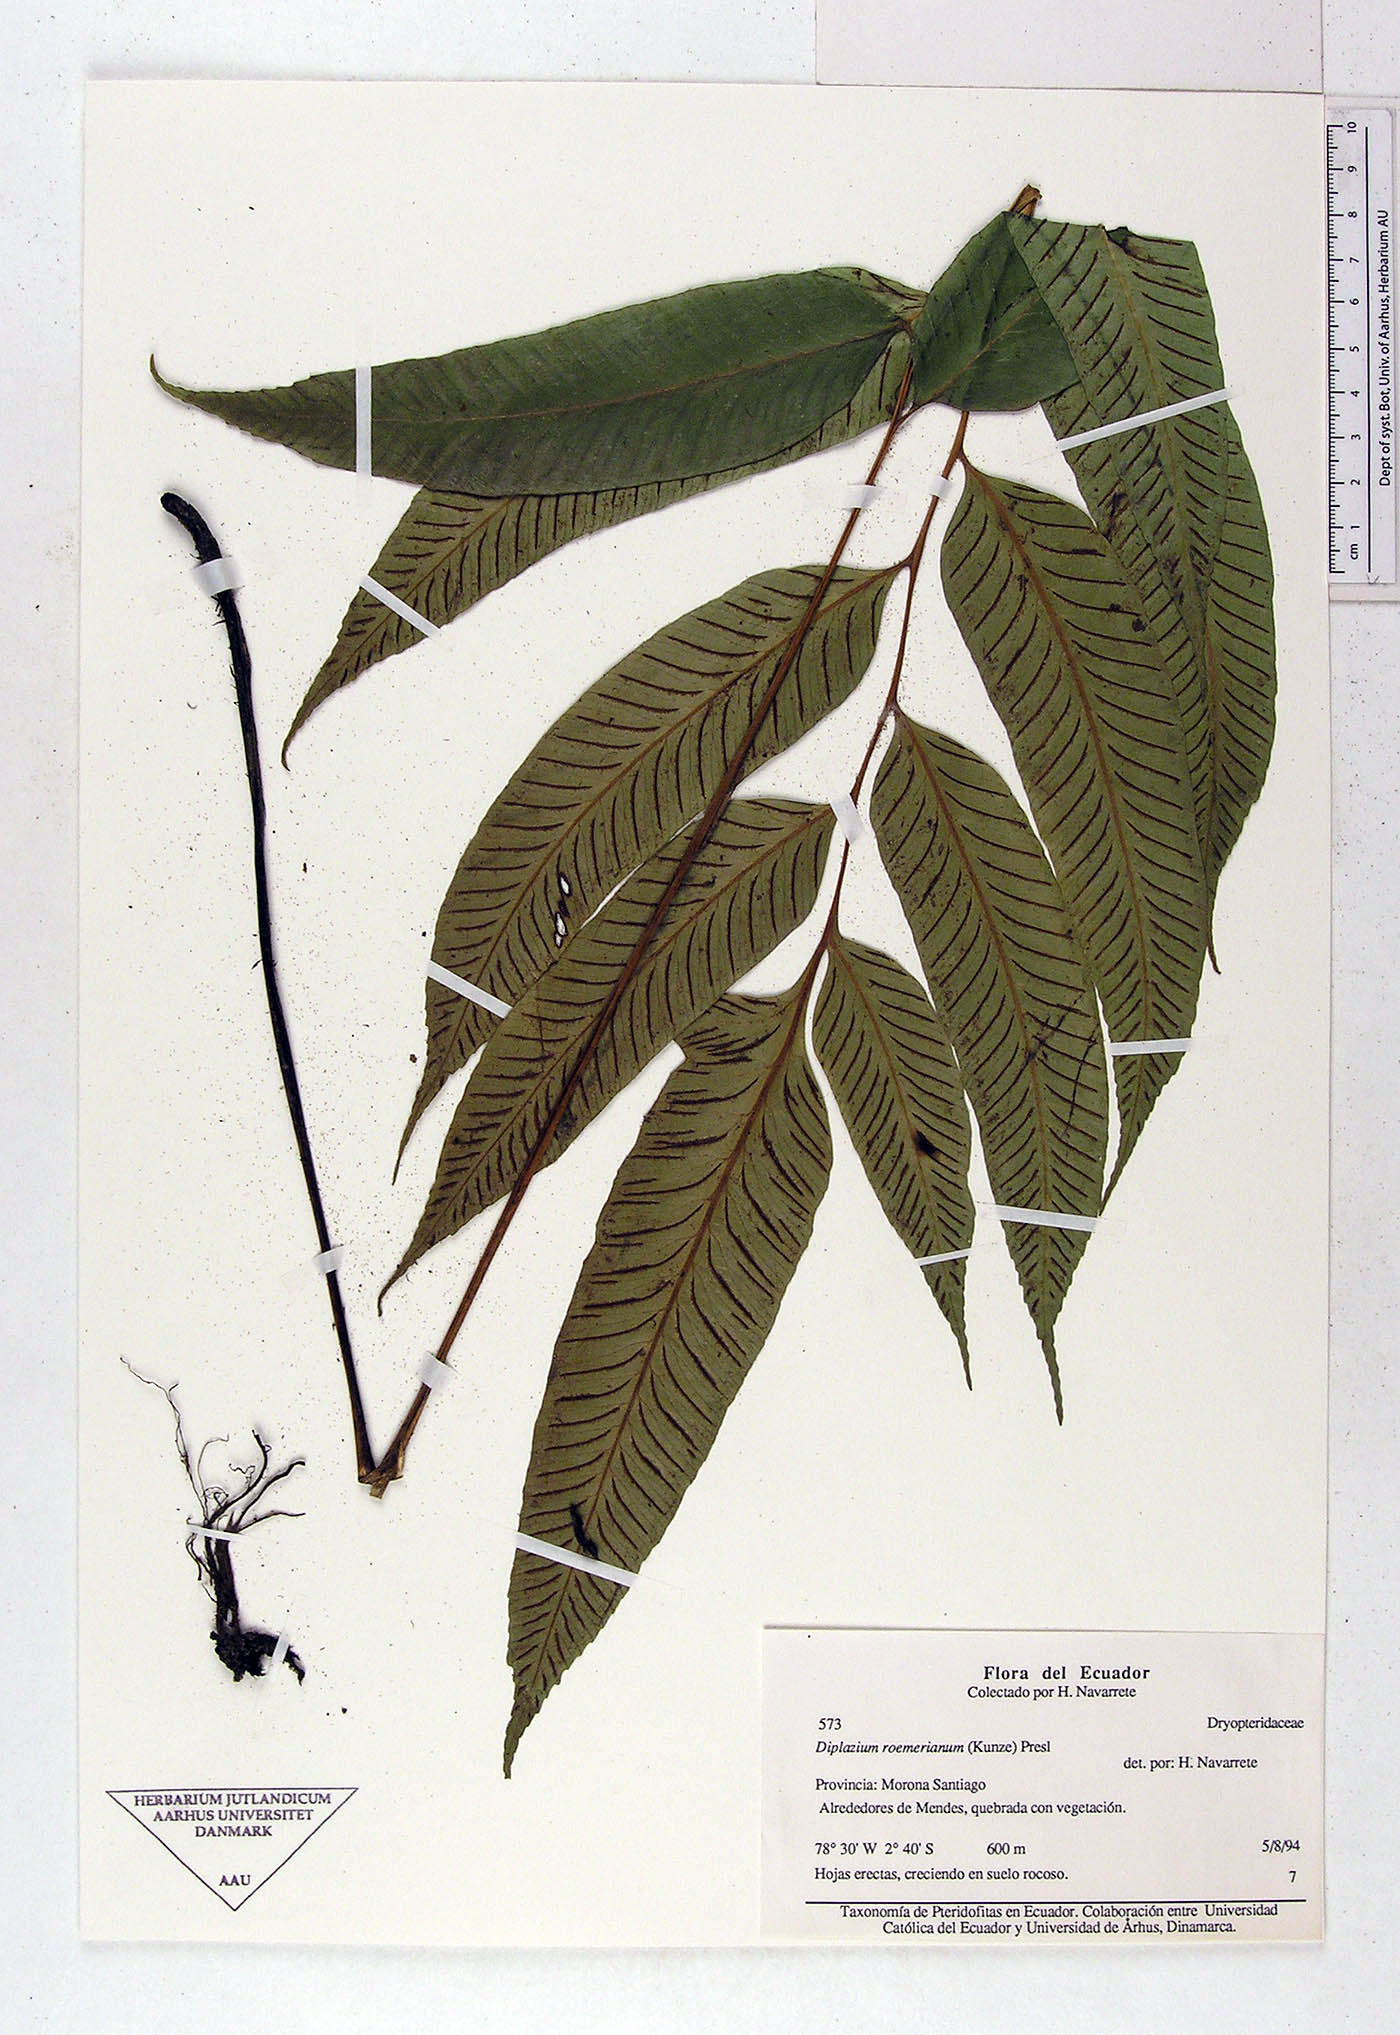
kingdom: Plantae
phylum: Tracheophyta
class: Polypodiopsida
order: Polypodiales
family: Athyriaceae
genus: Diplazium
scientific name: Diplazium
